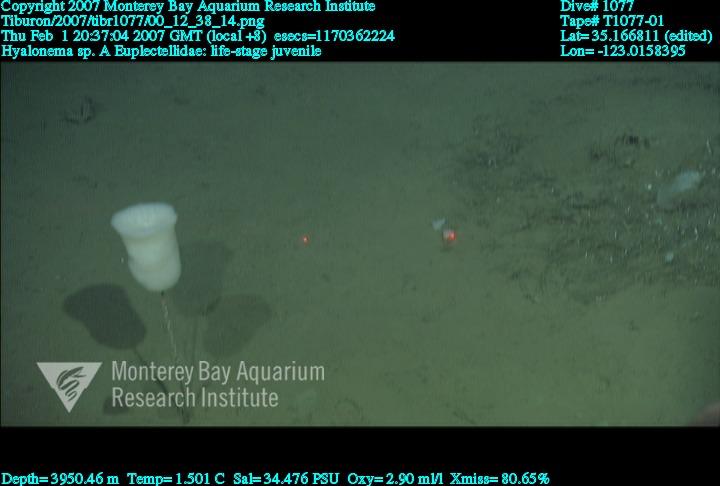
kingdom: Animalia
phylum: Porifera
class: Hexactinellida
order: Amphidiscosida
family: Hyalonematidae
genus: Hyalonema
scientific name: Hyalonema
